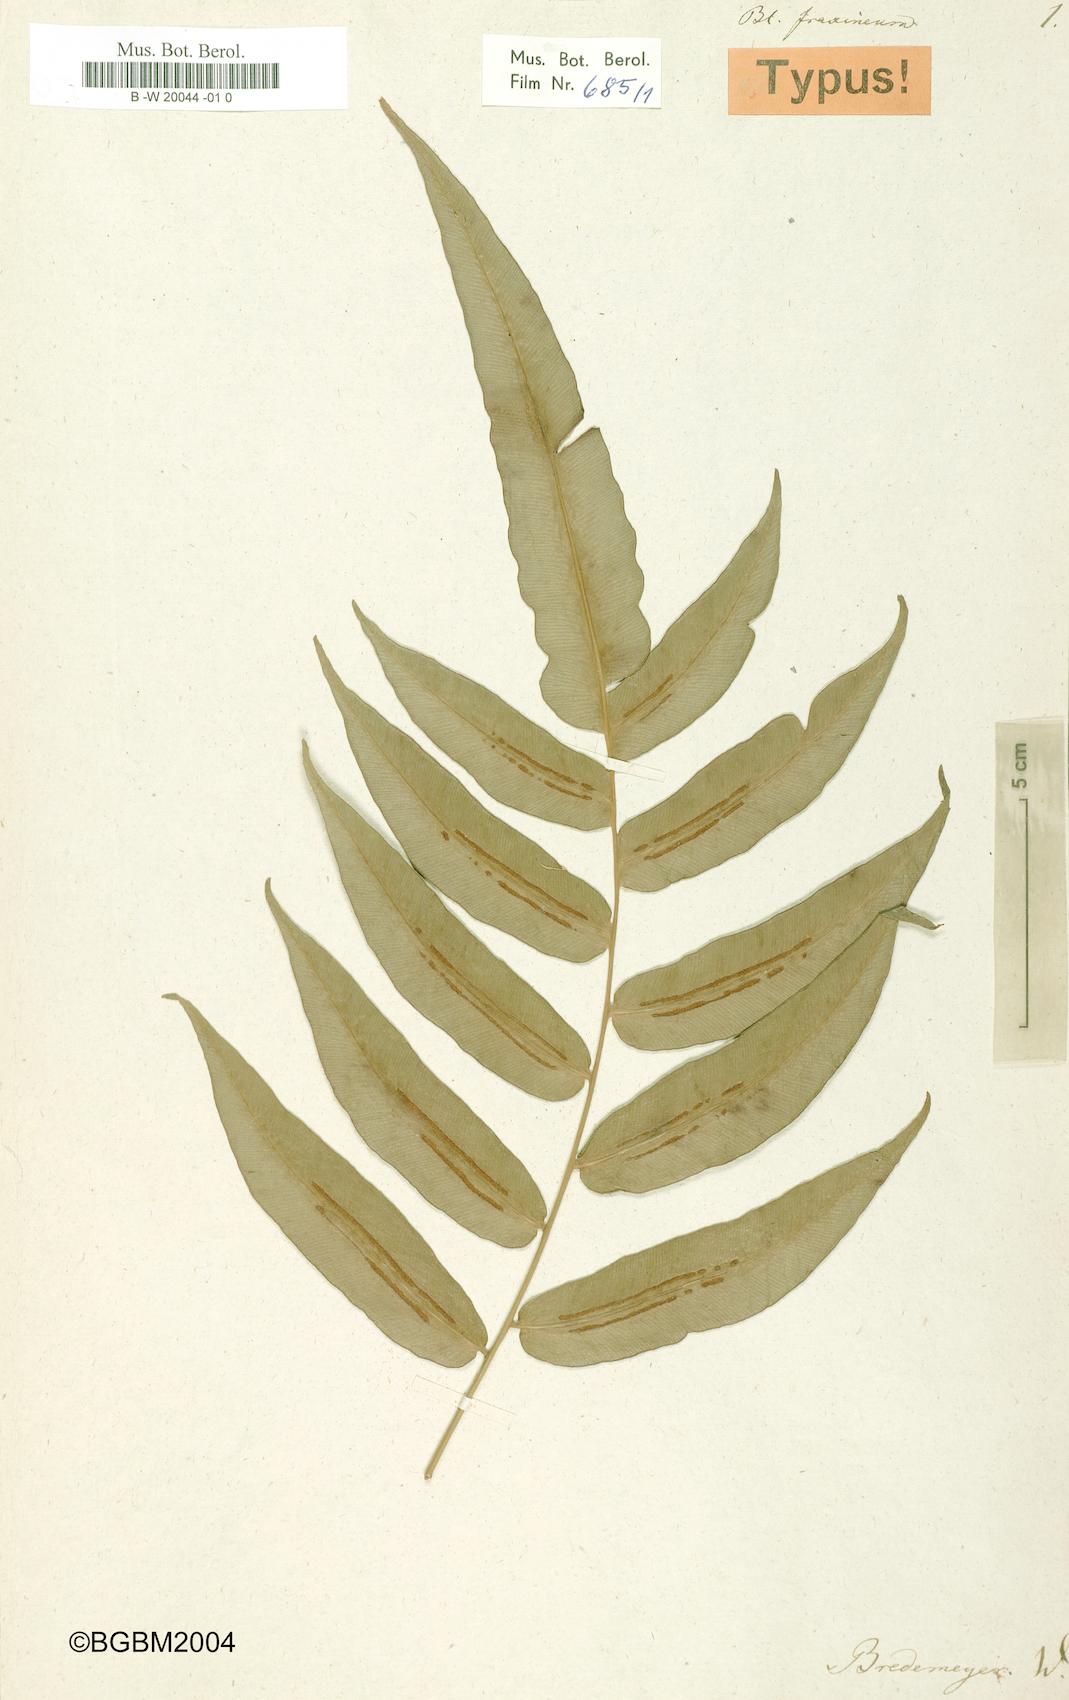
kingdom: Plantae
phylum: Tracheophyta
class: Polypodiopsida
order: Polypodiales
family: Blechnaceae
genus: Blechnum
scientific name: Blechnum gracile
